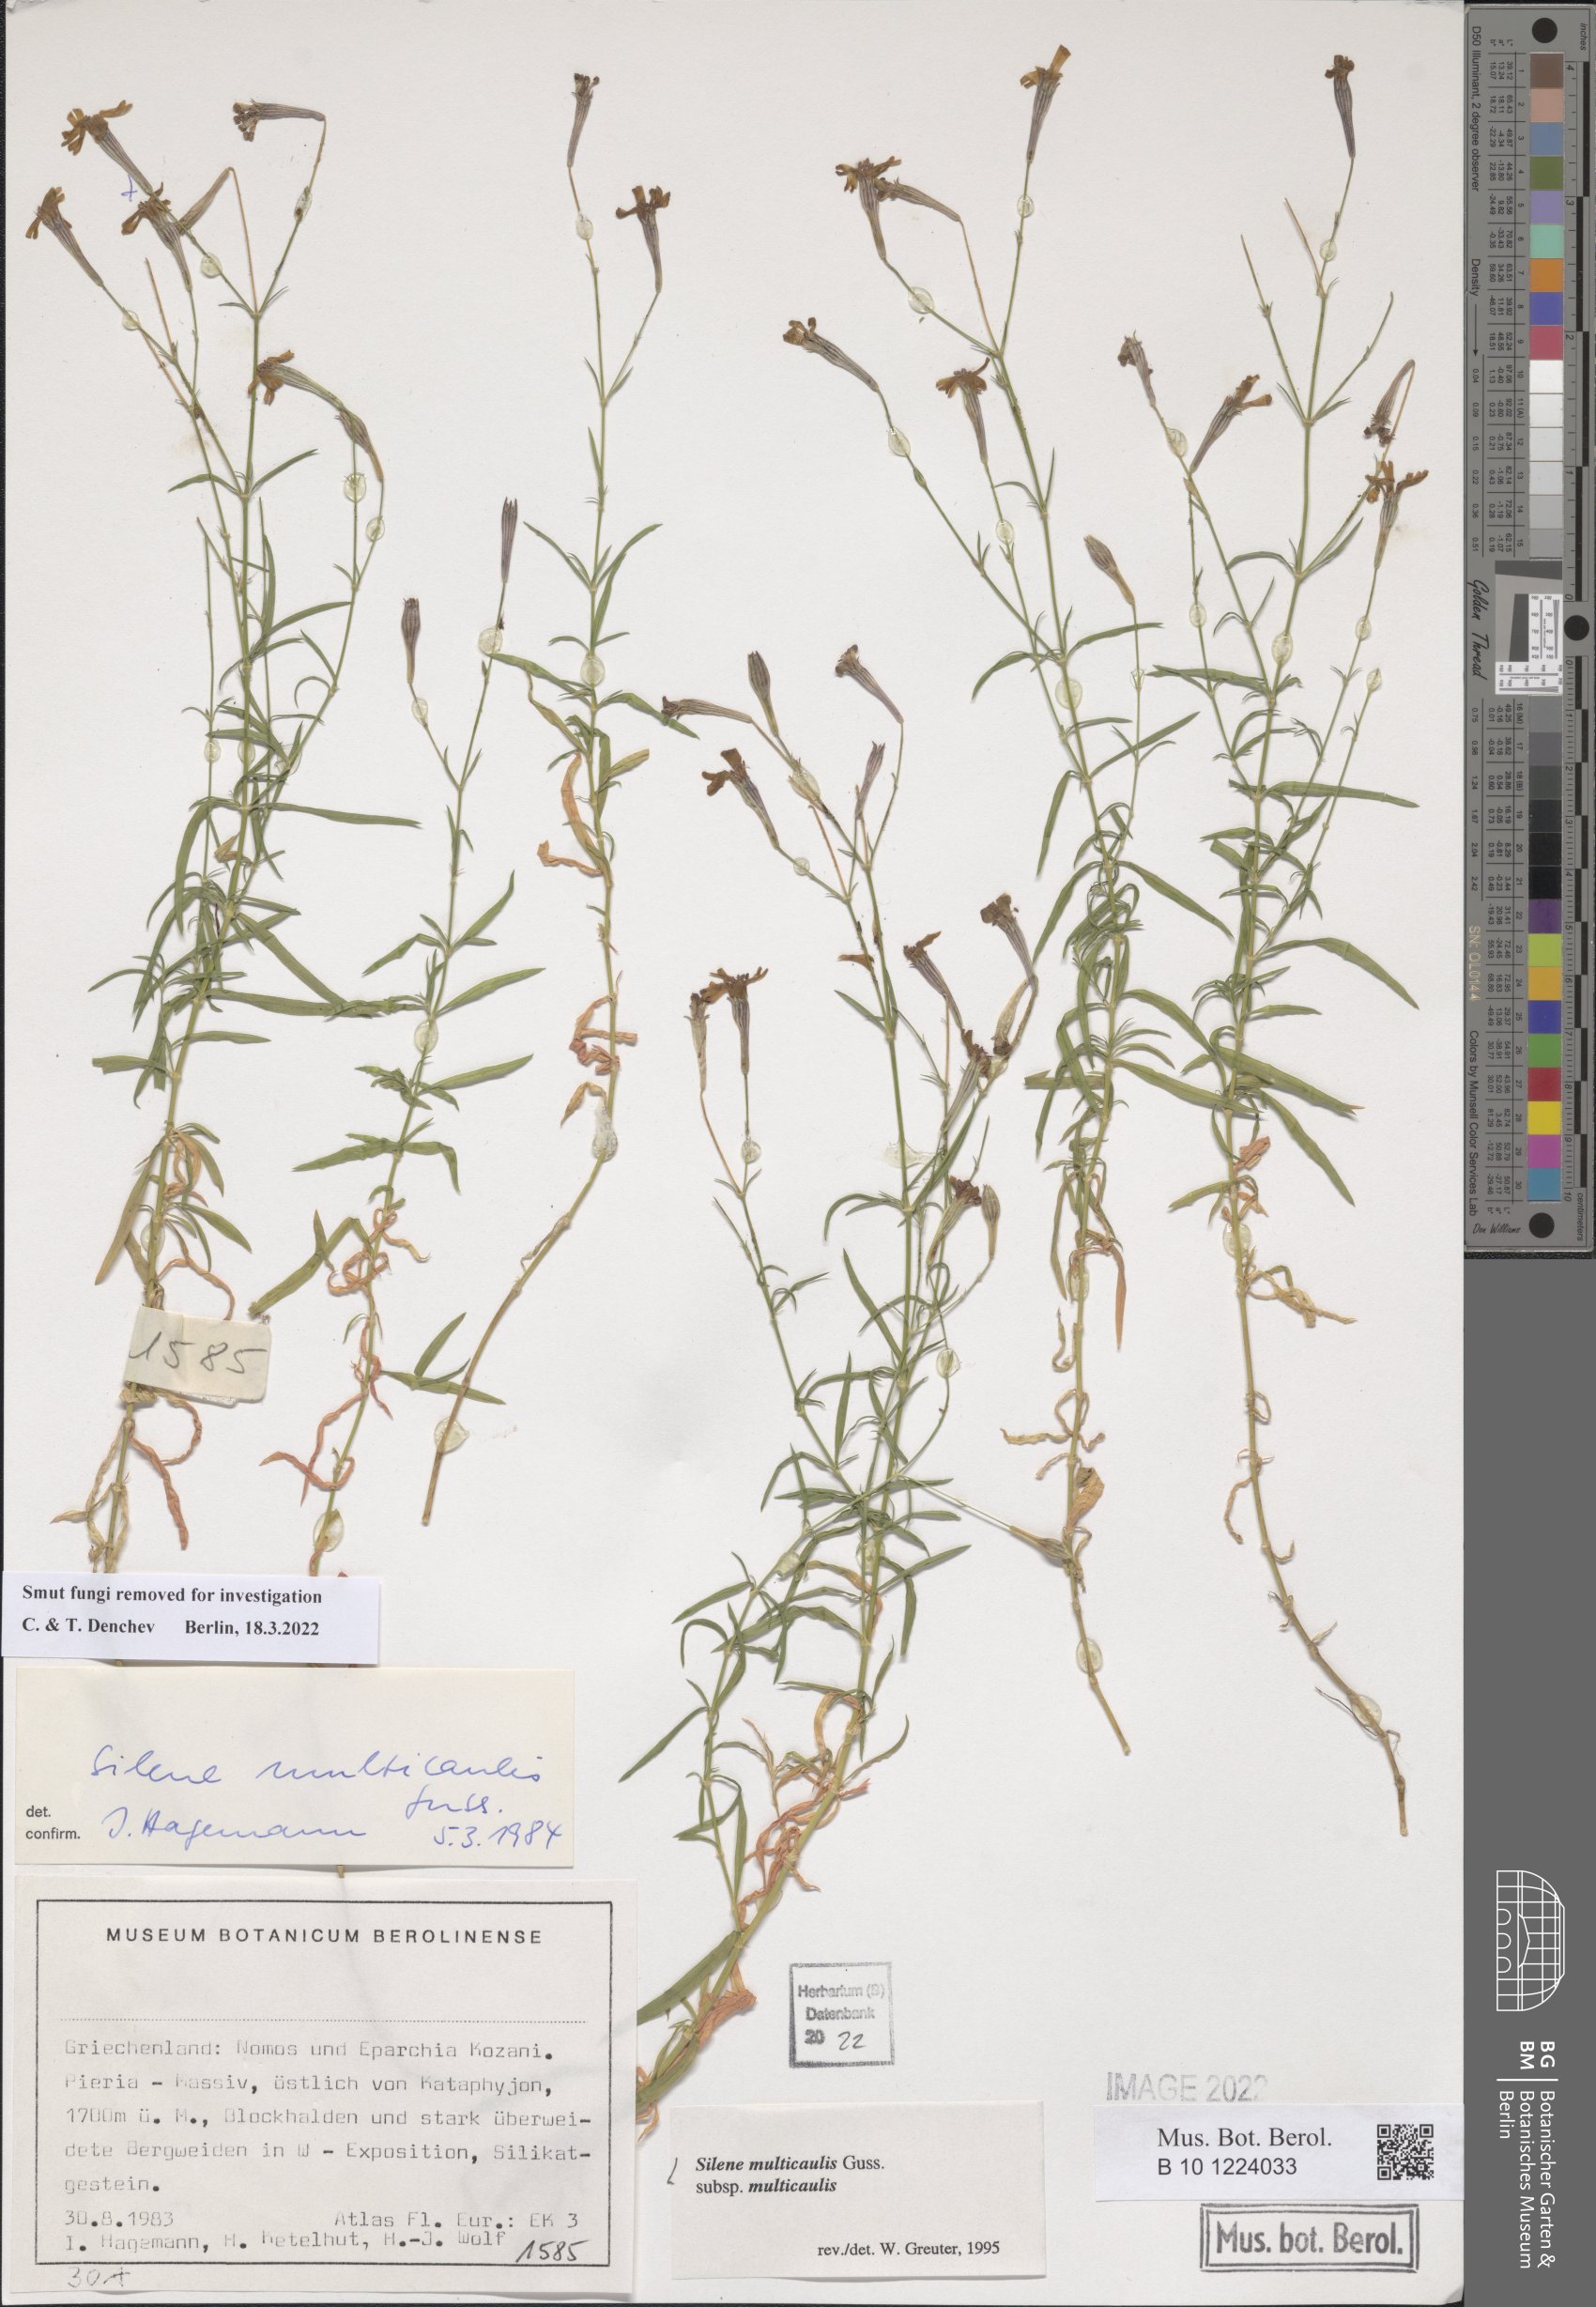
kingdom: Plantae
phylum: Tracheophyta
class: Magnoliopsida
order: Caryophyllales
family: Caryophyllaceae
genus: Silene
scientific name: Silene multicaulis
